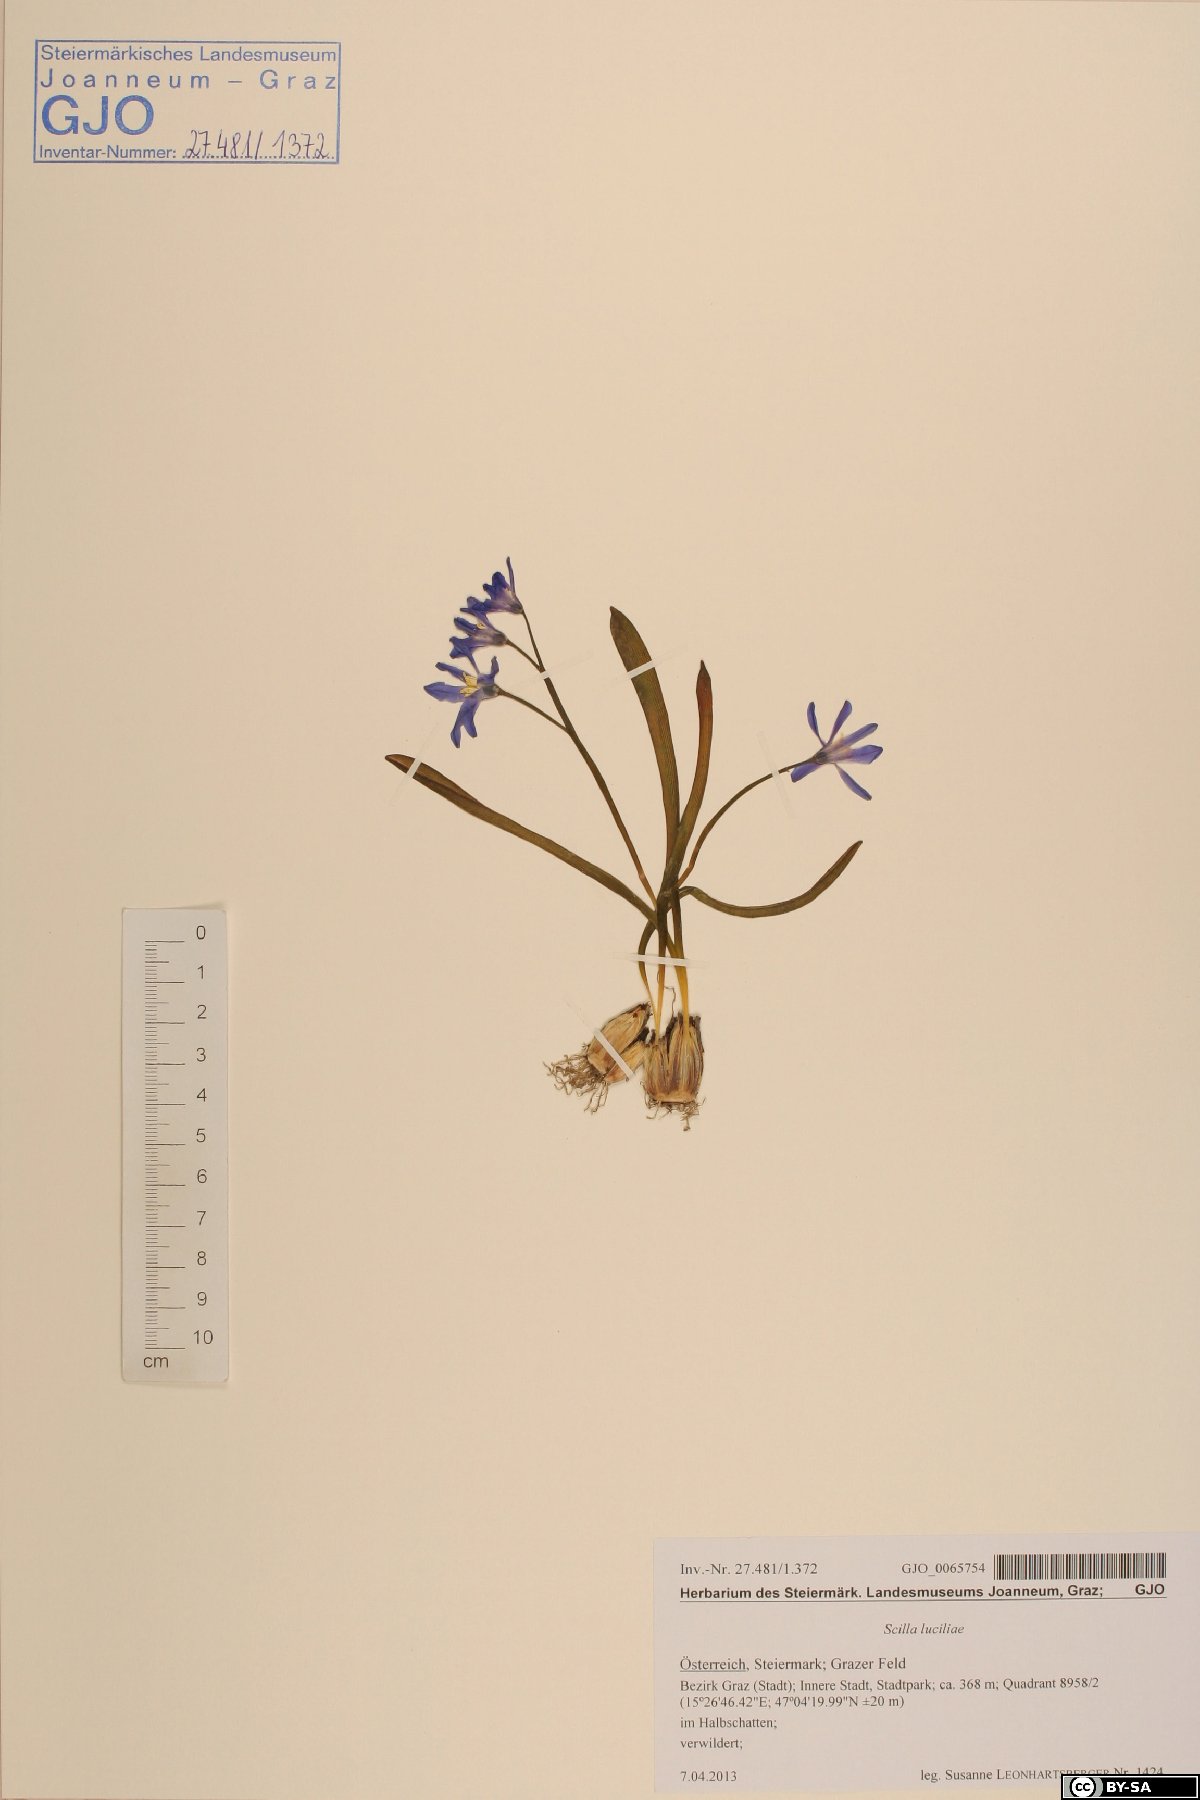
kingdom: Plantae
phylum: Tracheophyta
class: Liliopsida
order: Asparagales
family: Asparagaceae
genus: Scilla
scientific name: Scilla forbesii
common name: Glory-of-the-snow
